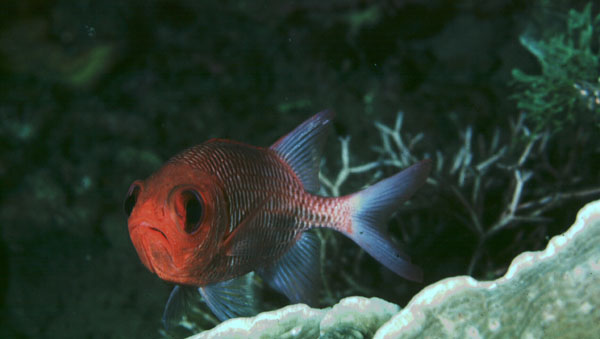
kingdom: Animalia
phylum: Chordata
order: Beryciformes
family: Holocentridae
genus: Myripristis
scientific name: Myripristis hexagona
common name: Blacktip soldierfish
